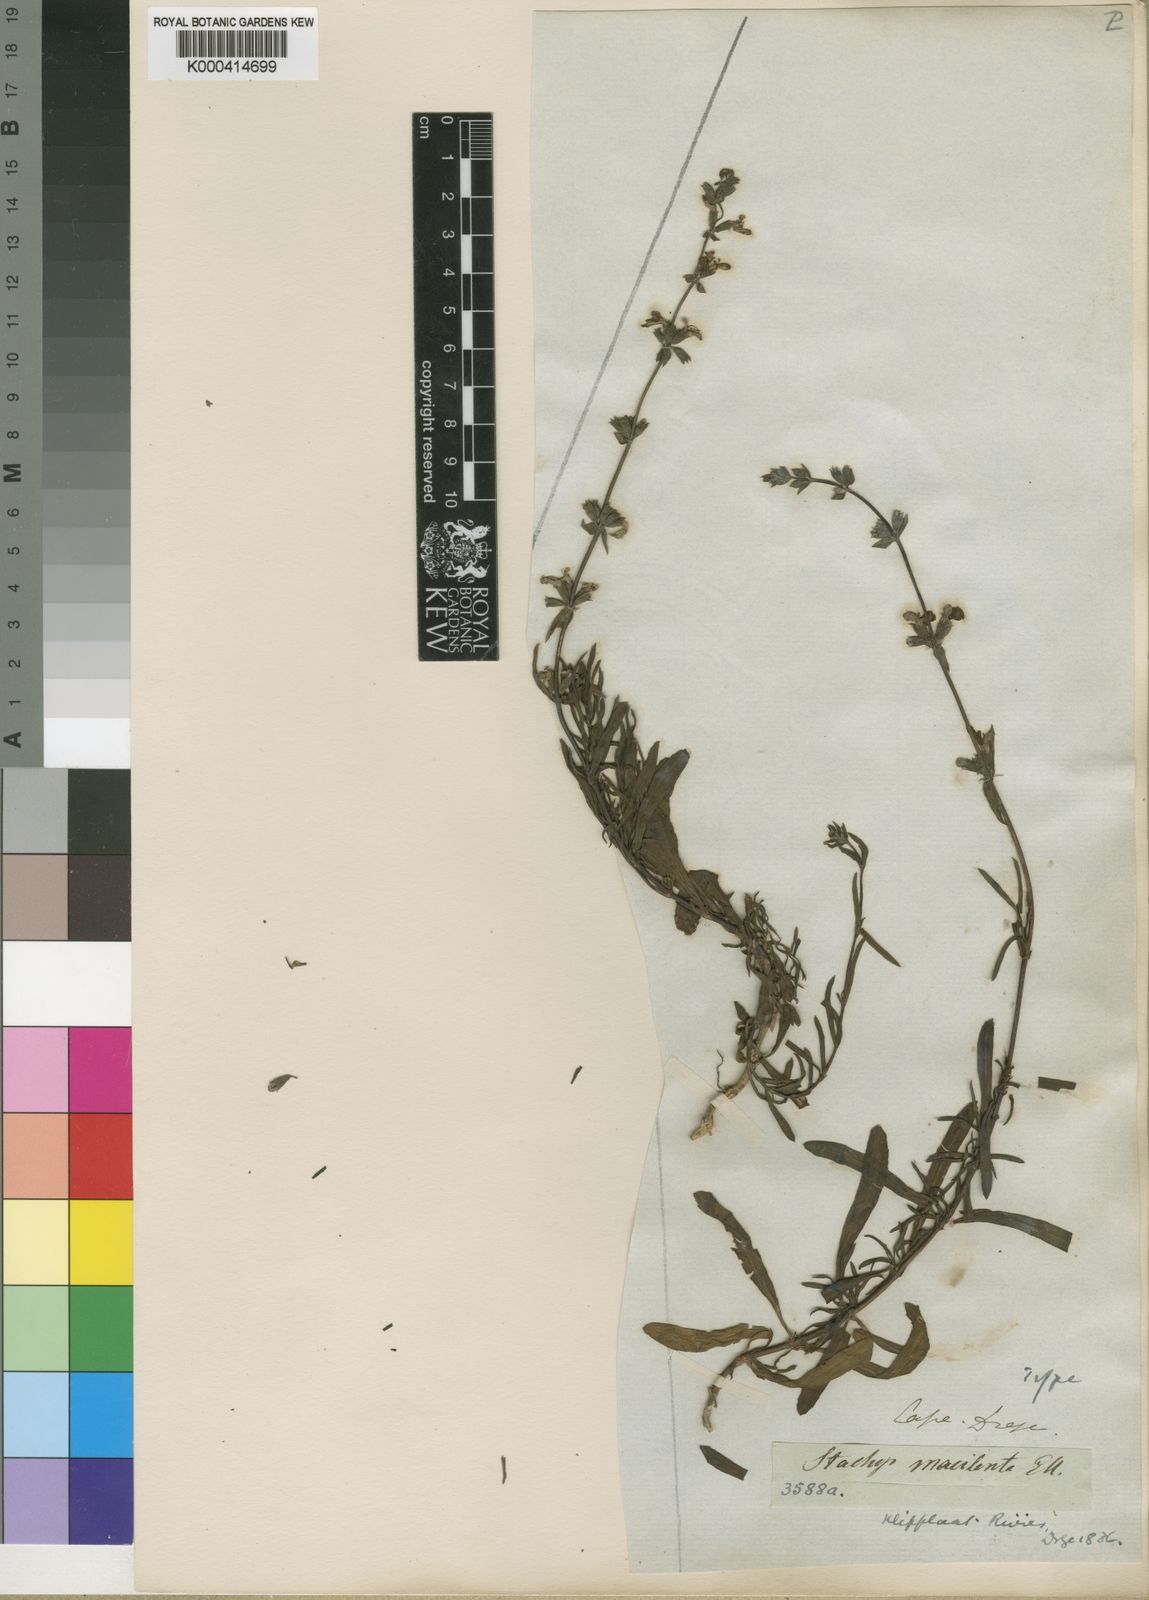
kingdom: Plantae
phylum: Tracheophyta
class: Magnoliopsida
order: Lamiales
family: Lamiaceae
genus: Stachys
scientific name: Stachys hyssopoides
